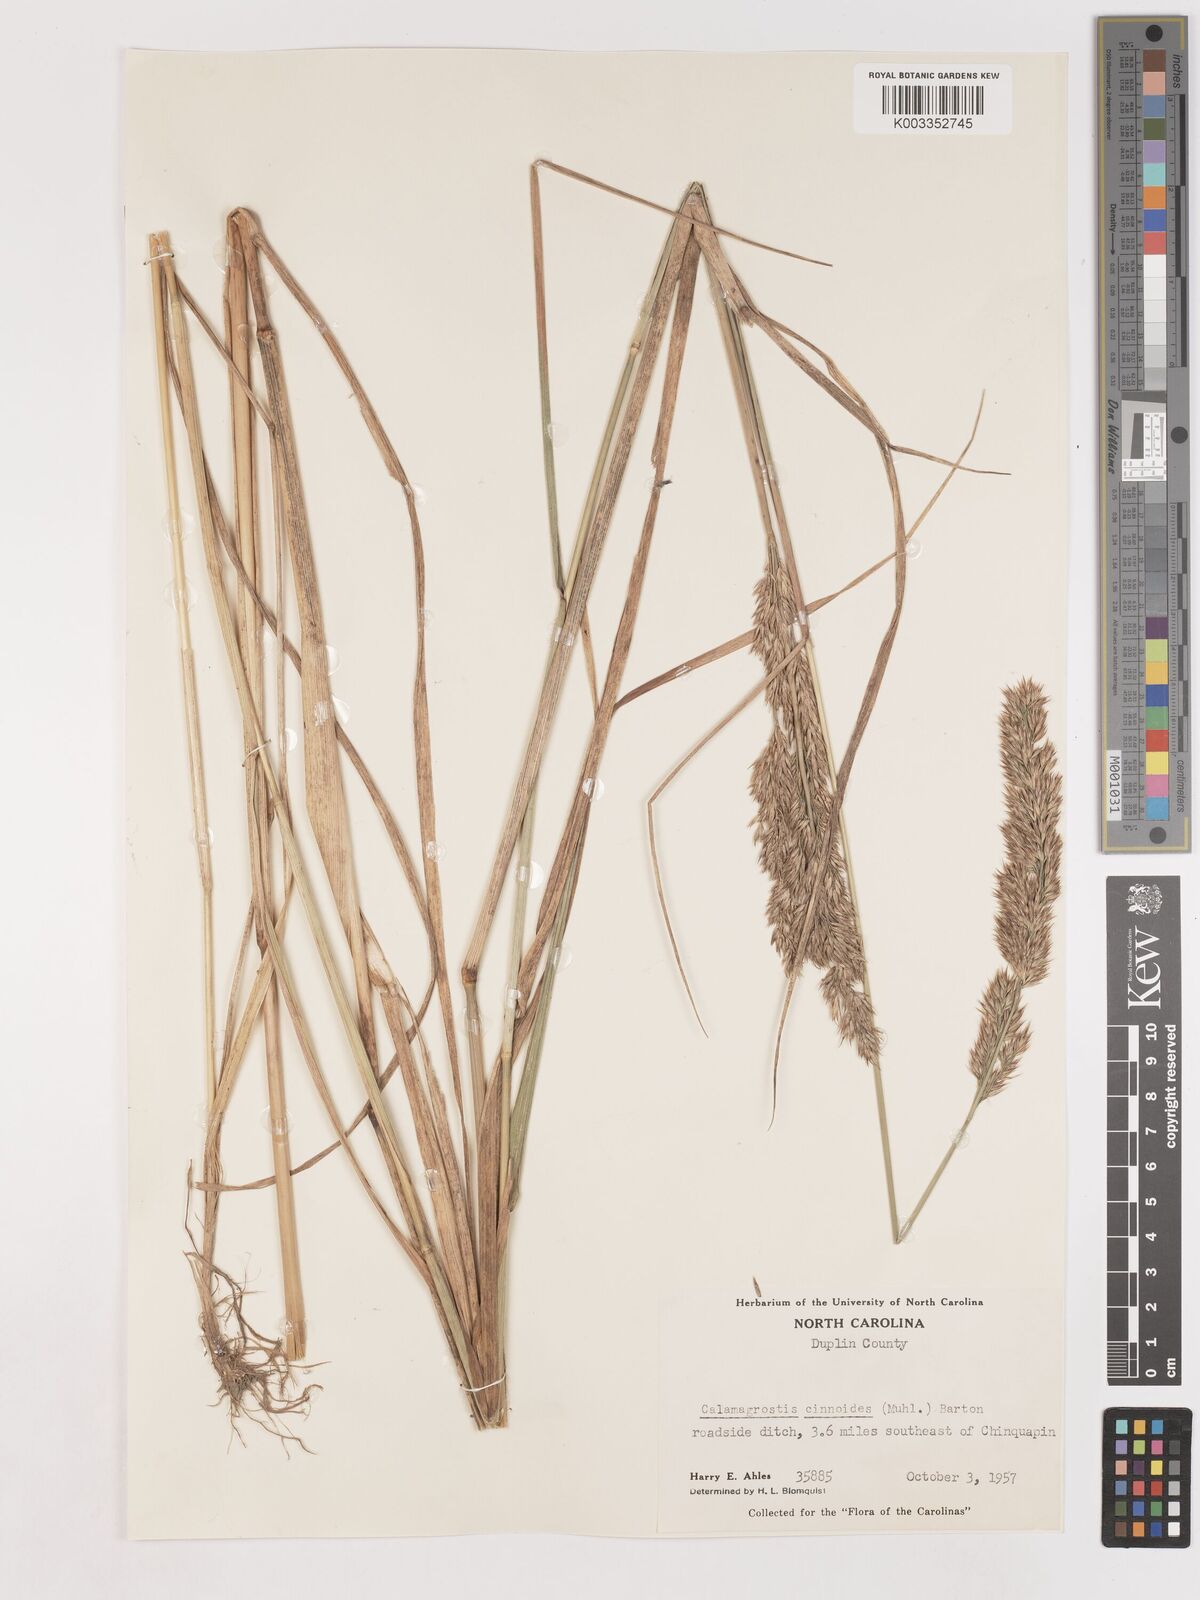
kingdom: Plantae
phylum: Tracheophyta
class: Liliopsida
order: Poales
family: Poaceae
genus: Calamagrostis
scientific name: Calamagrostis canadensis
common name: Canada bluejoint
